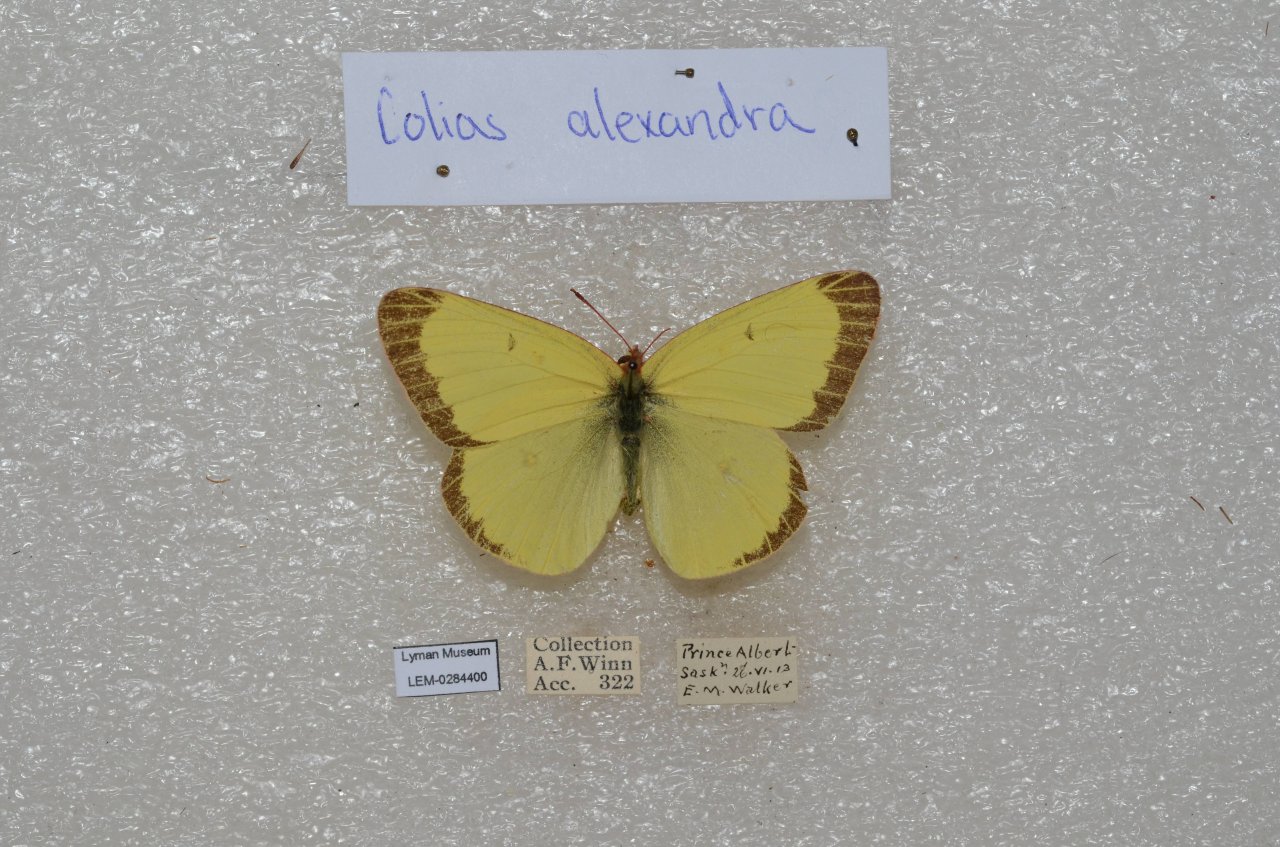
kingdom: Animalia
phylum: Arthropoda
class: Insecta
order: Lepidoptera
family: Pieridae
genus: Colias
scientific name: Colias alexandra
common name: Queen Alexandra's Sulphur
